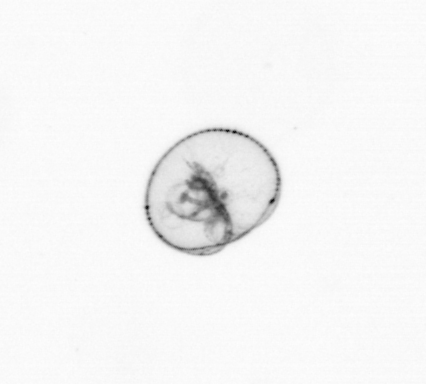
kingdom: Chromista
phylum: Myzozoa
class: Dinophyceae
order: Noctilucales
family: Noctilucaceae
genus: Noctiluca
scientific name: Noctiluca scintillans
